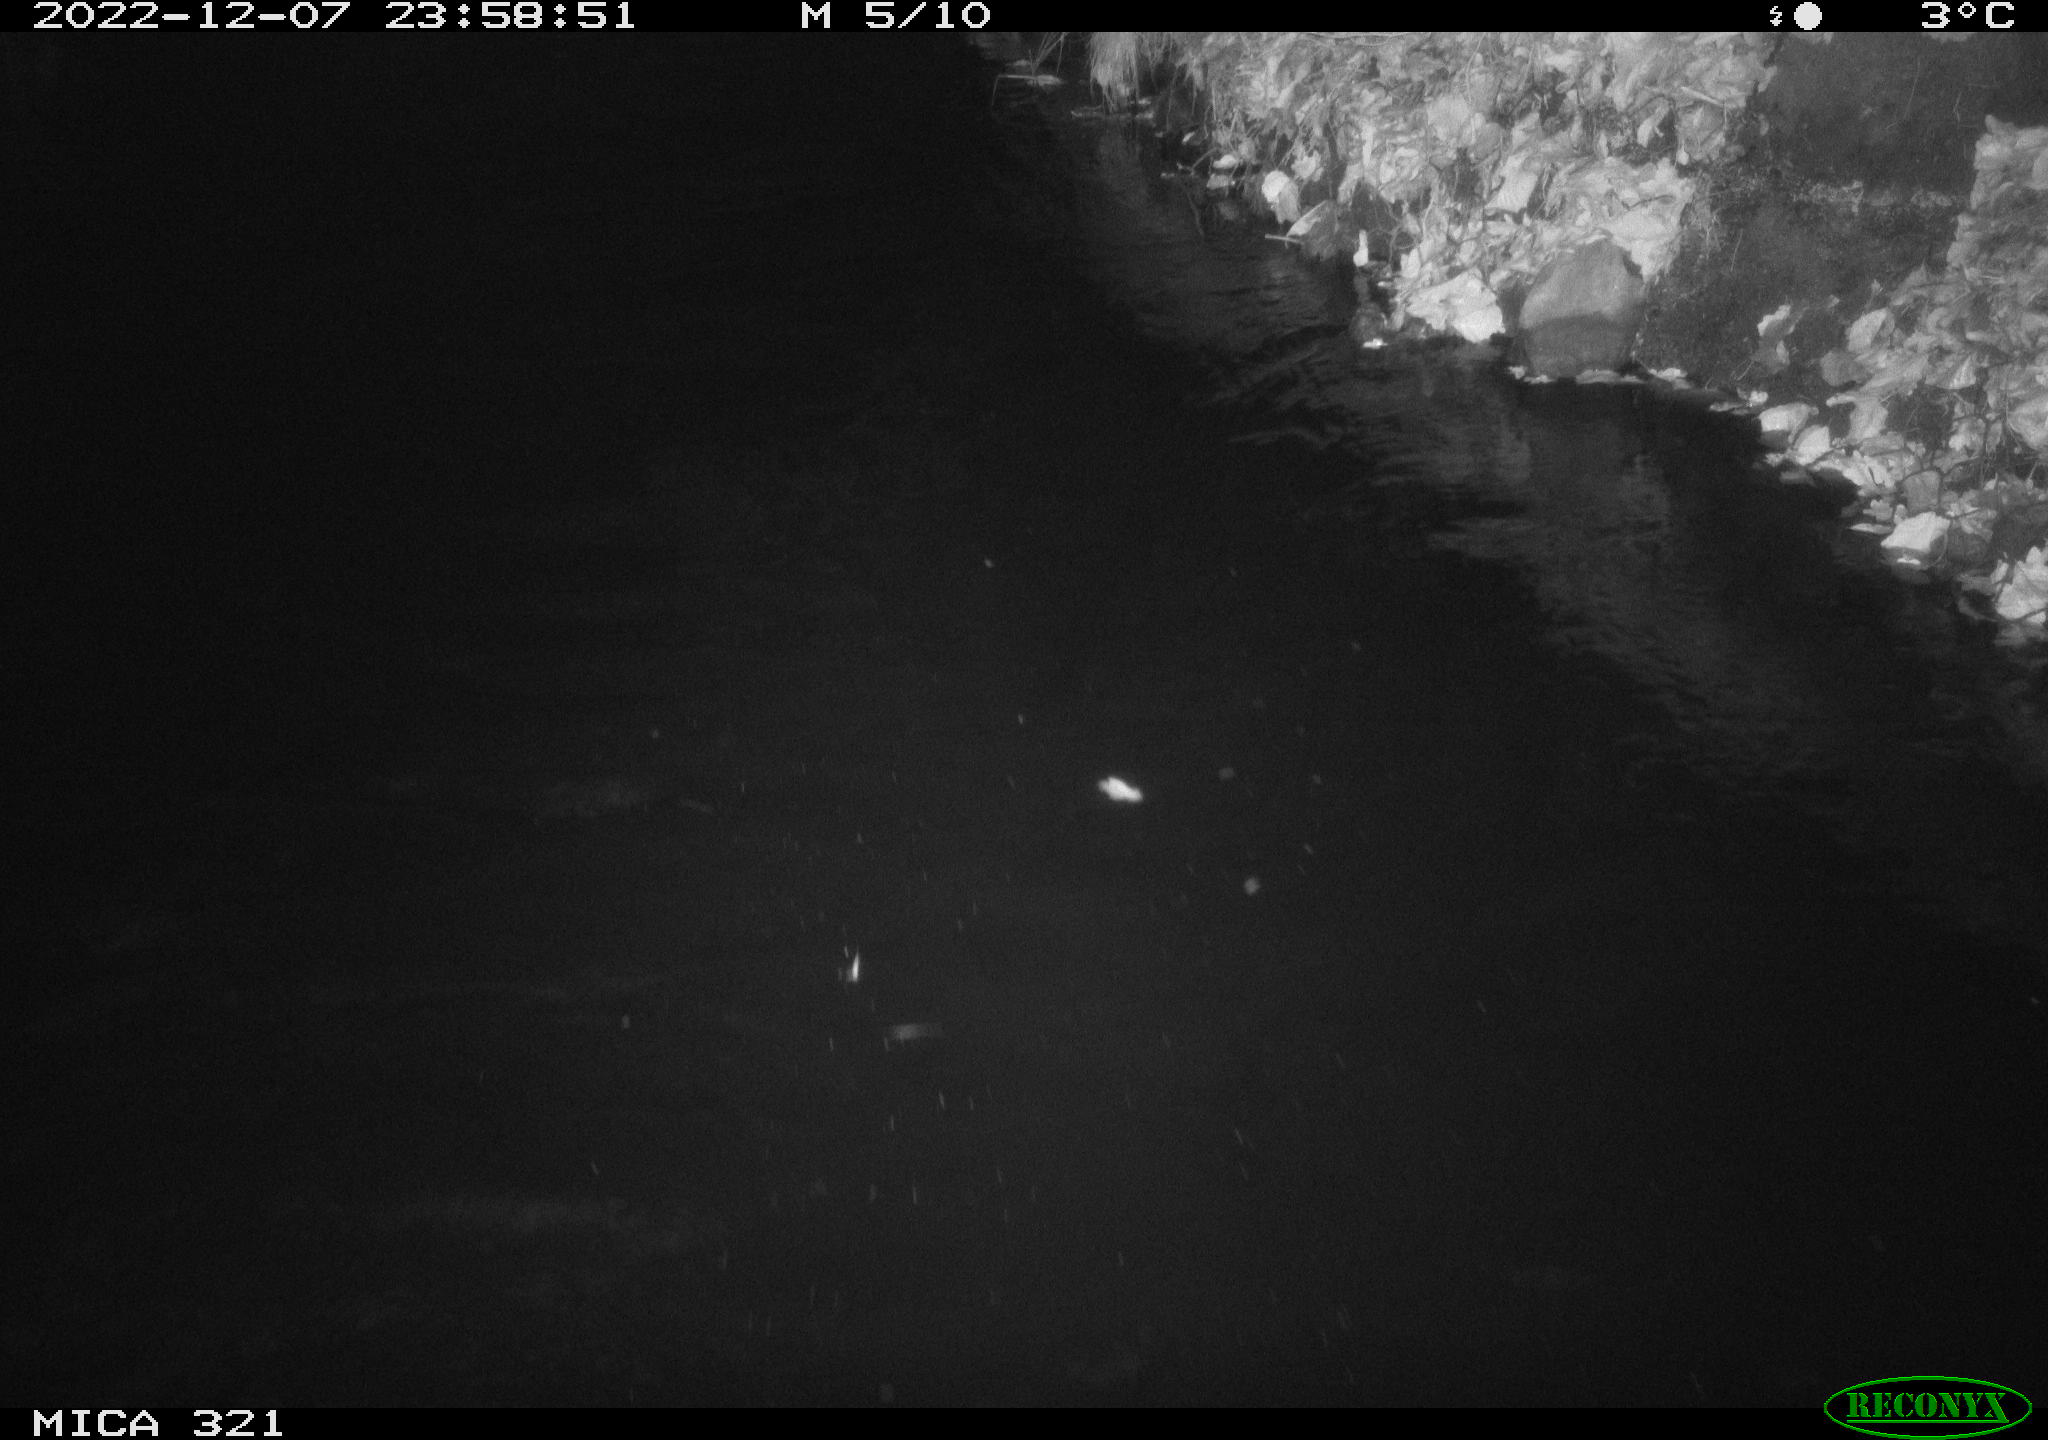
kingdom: Animalia
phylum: Chordata
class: Aves
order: Anseriformes
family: Anatidae
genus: Anas
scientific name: Anas
